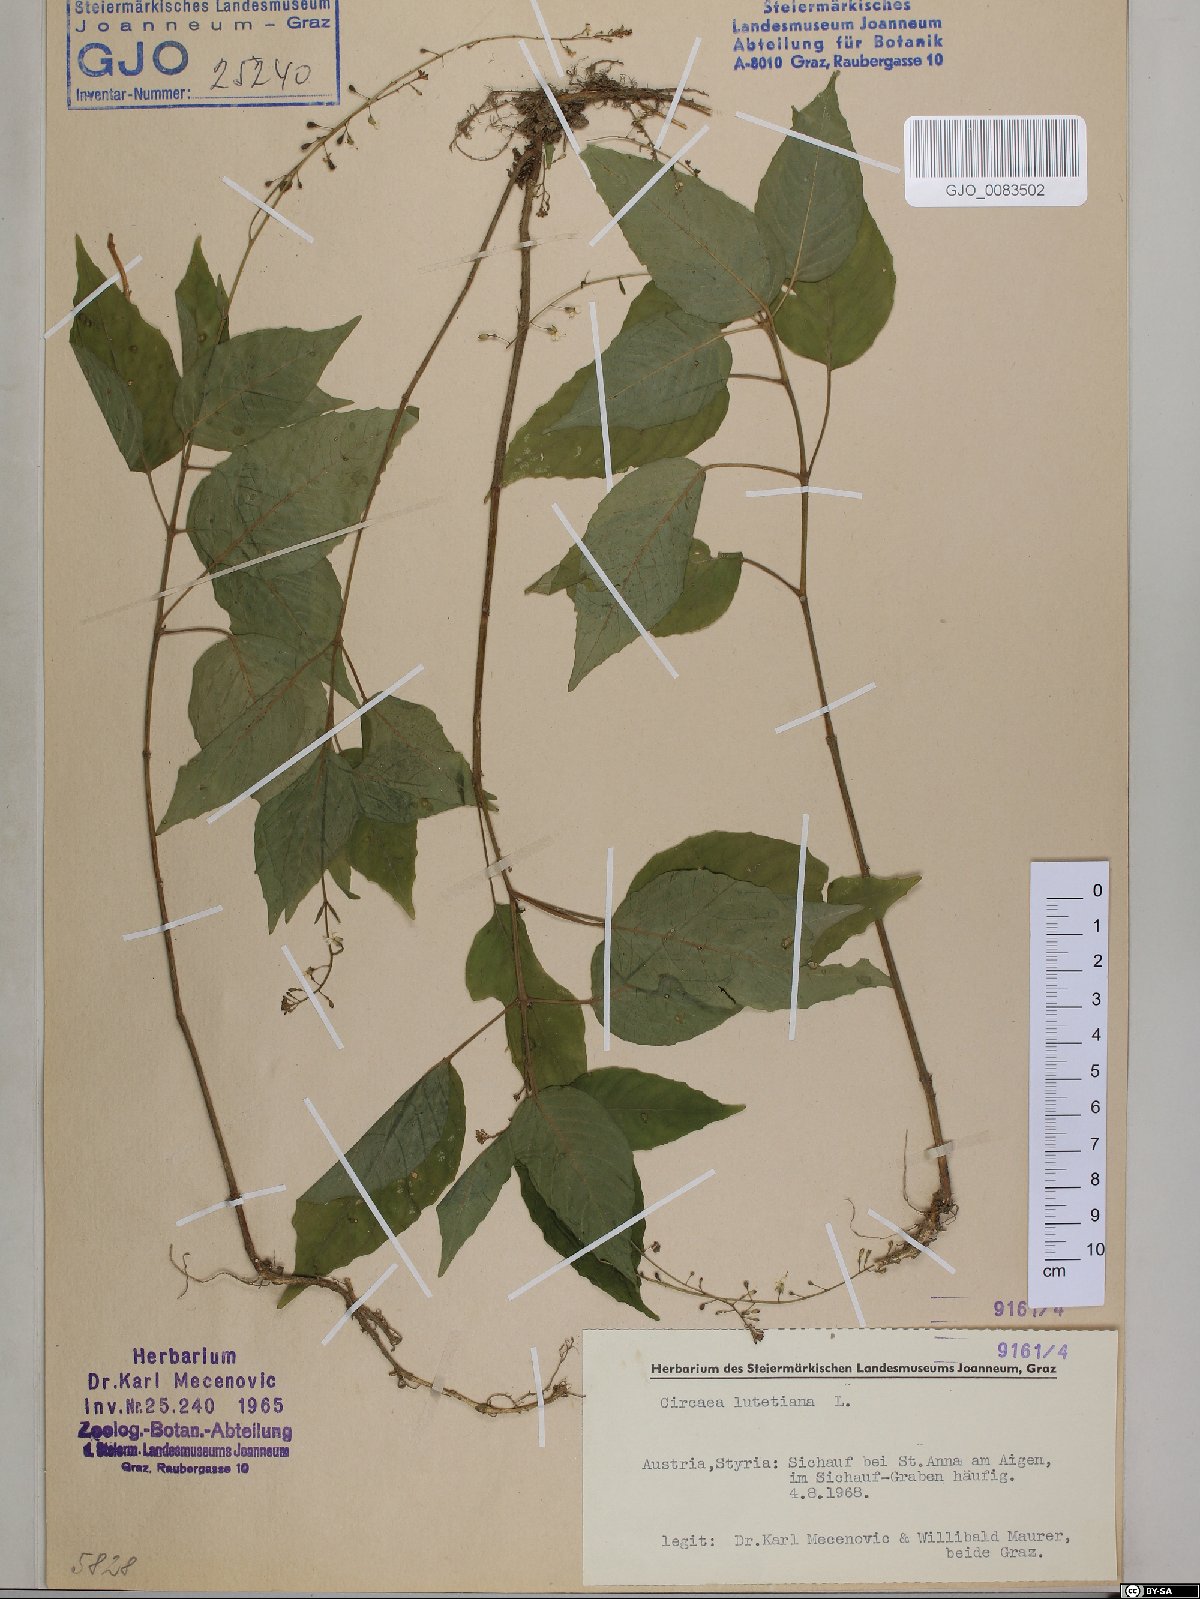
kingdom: Plantae
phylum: Tracheophyta
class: Magnoliopsida
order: Myrtales
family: Onagraceae
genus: Circaea
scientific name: Circaea lutetiana
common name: Enchanter's-nightshade
